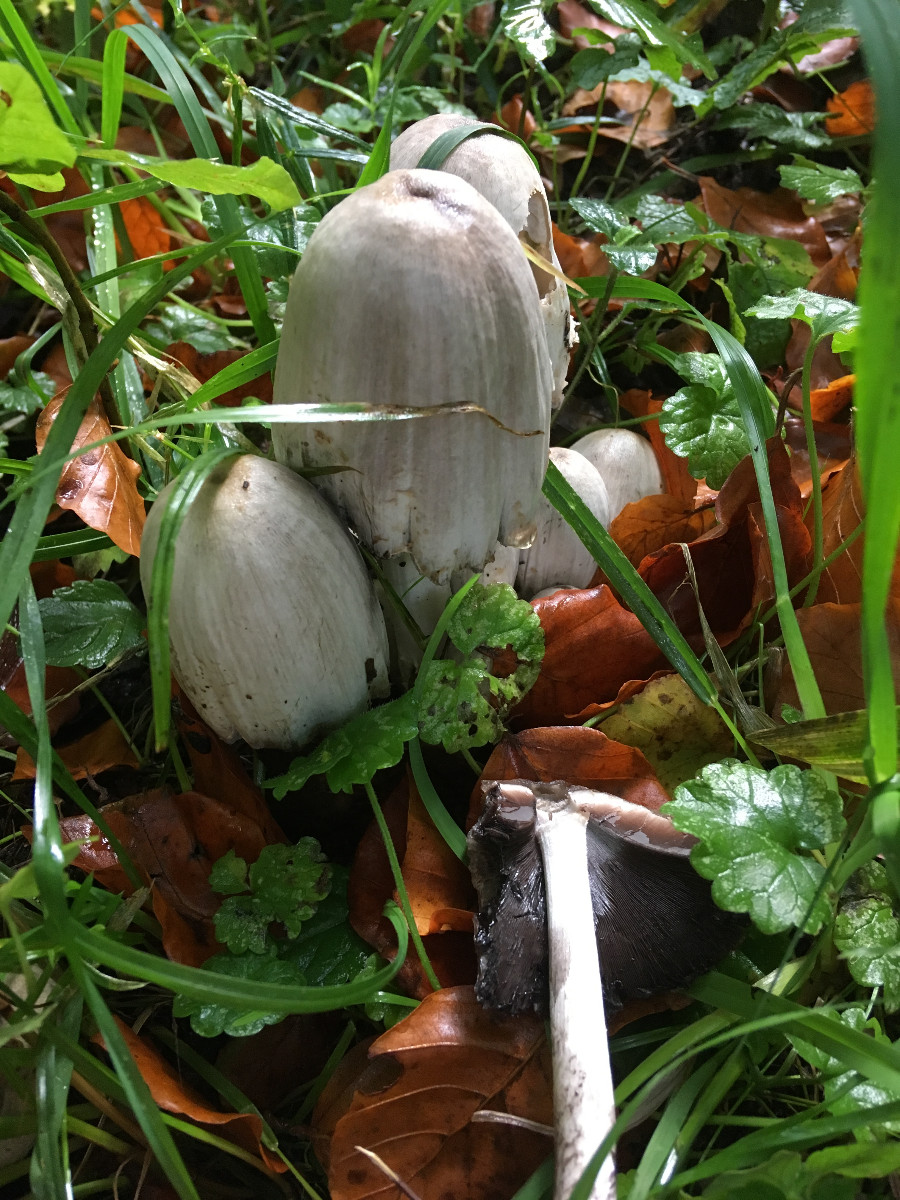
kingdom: Fungi
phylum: Basidiomycota
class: Agaricomycetes
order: Agaricales
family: Psathyrellaceae
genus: Coprinopsis
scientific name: Coprinopsis atramentaria
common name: almindelig blækhat
